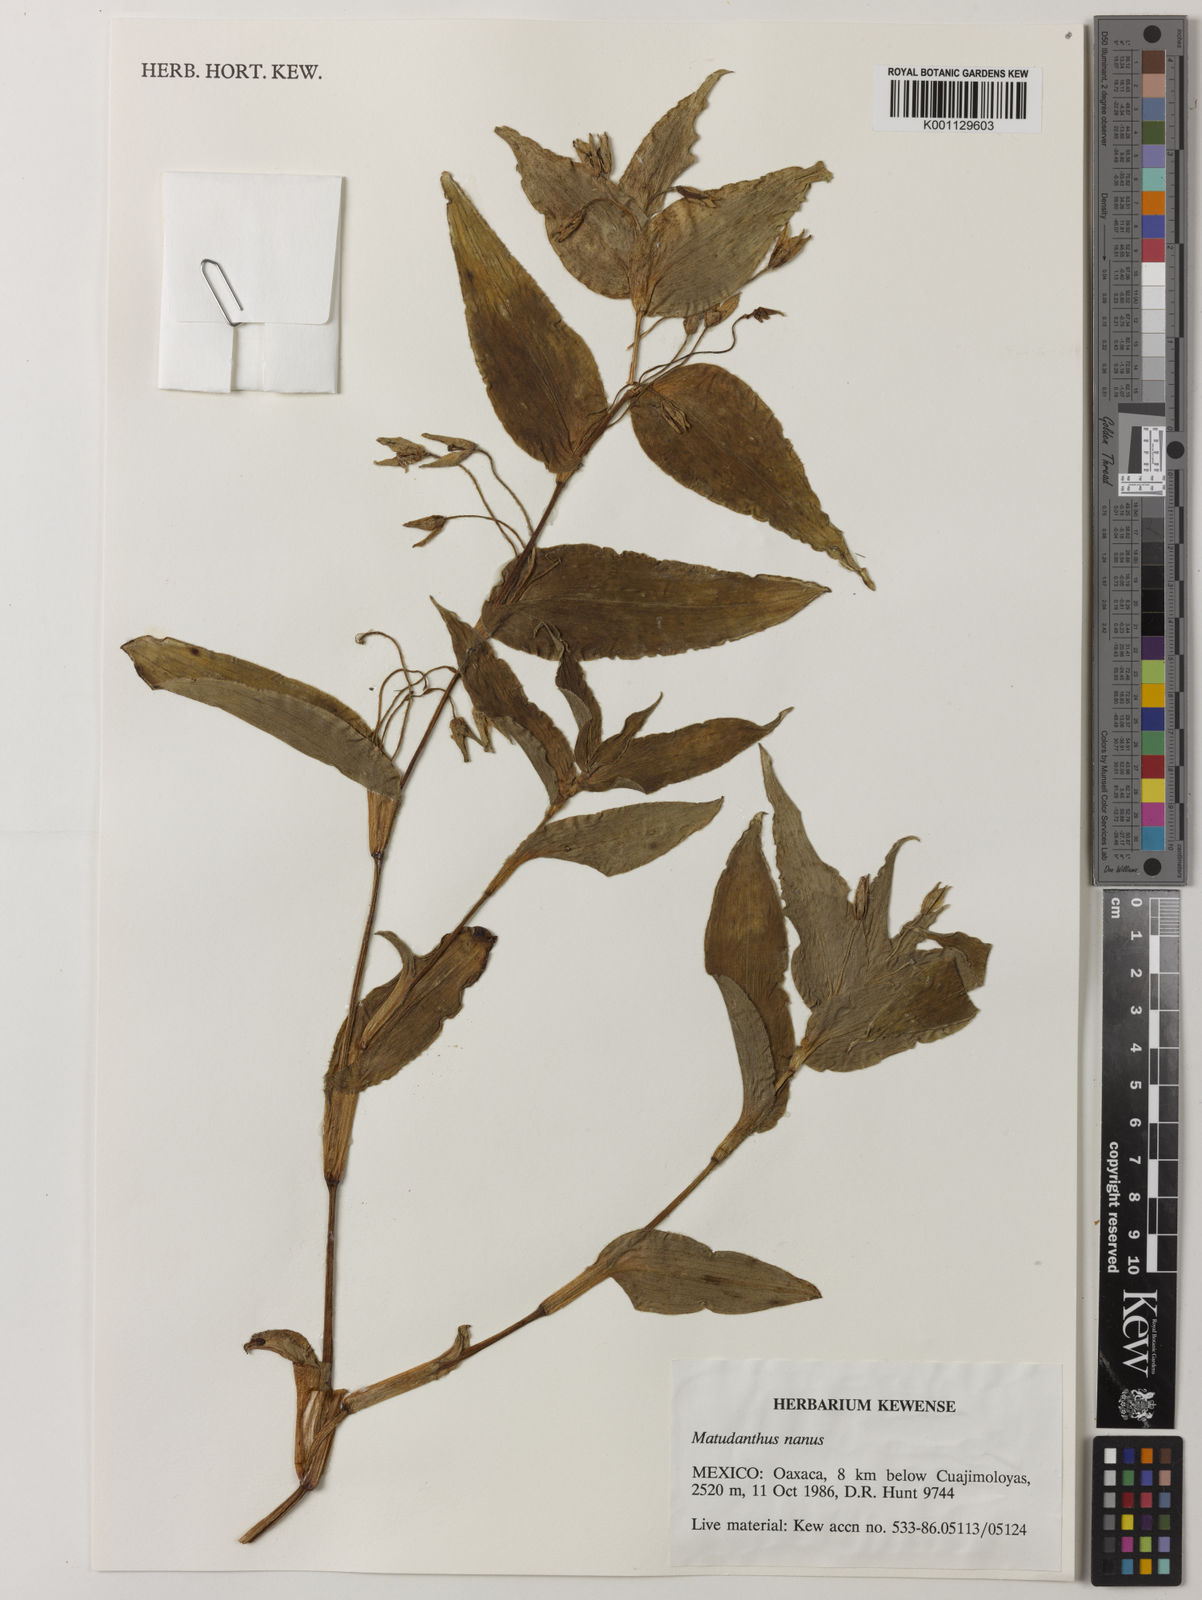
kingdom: Plantae
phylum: Tracheophyta
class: Liliopsida
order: Commelinales
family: Commelinaceae
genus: Matudanthus
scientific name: Matudanthus nanus
